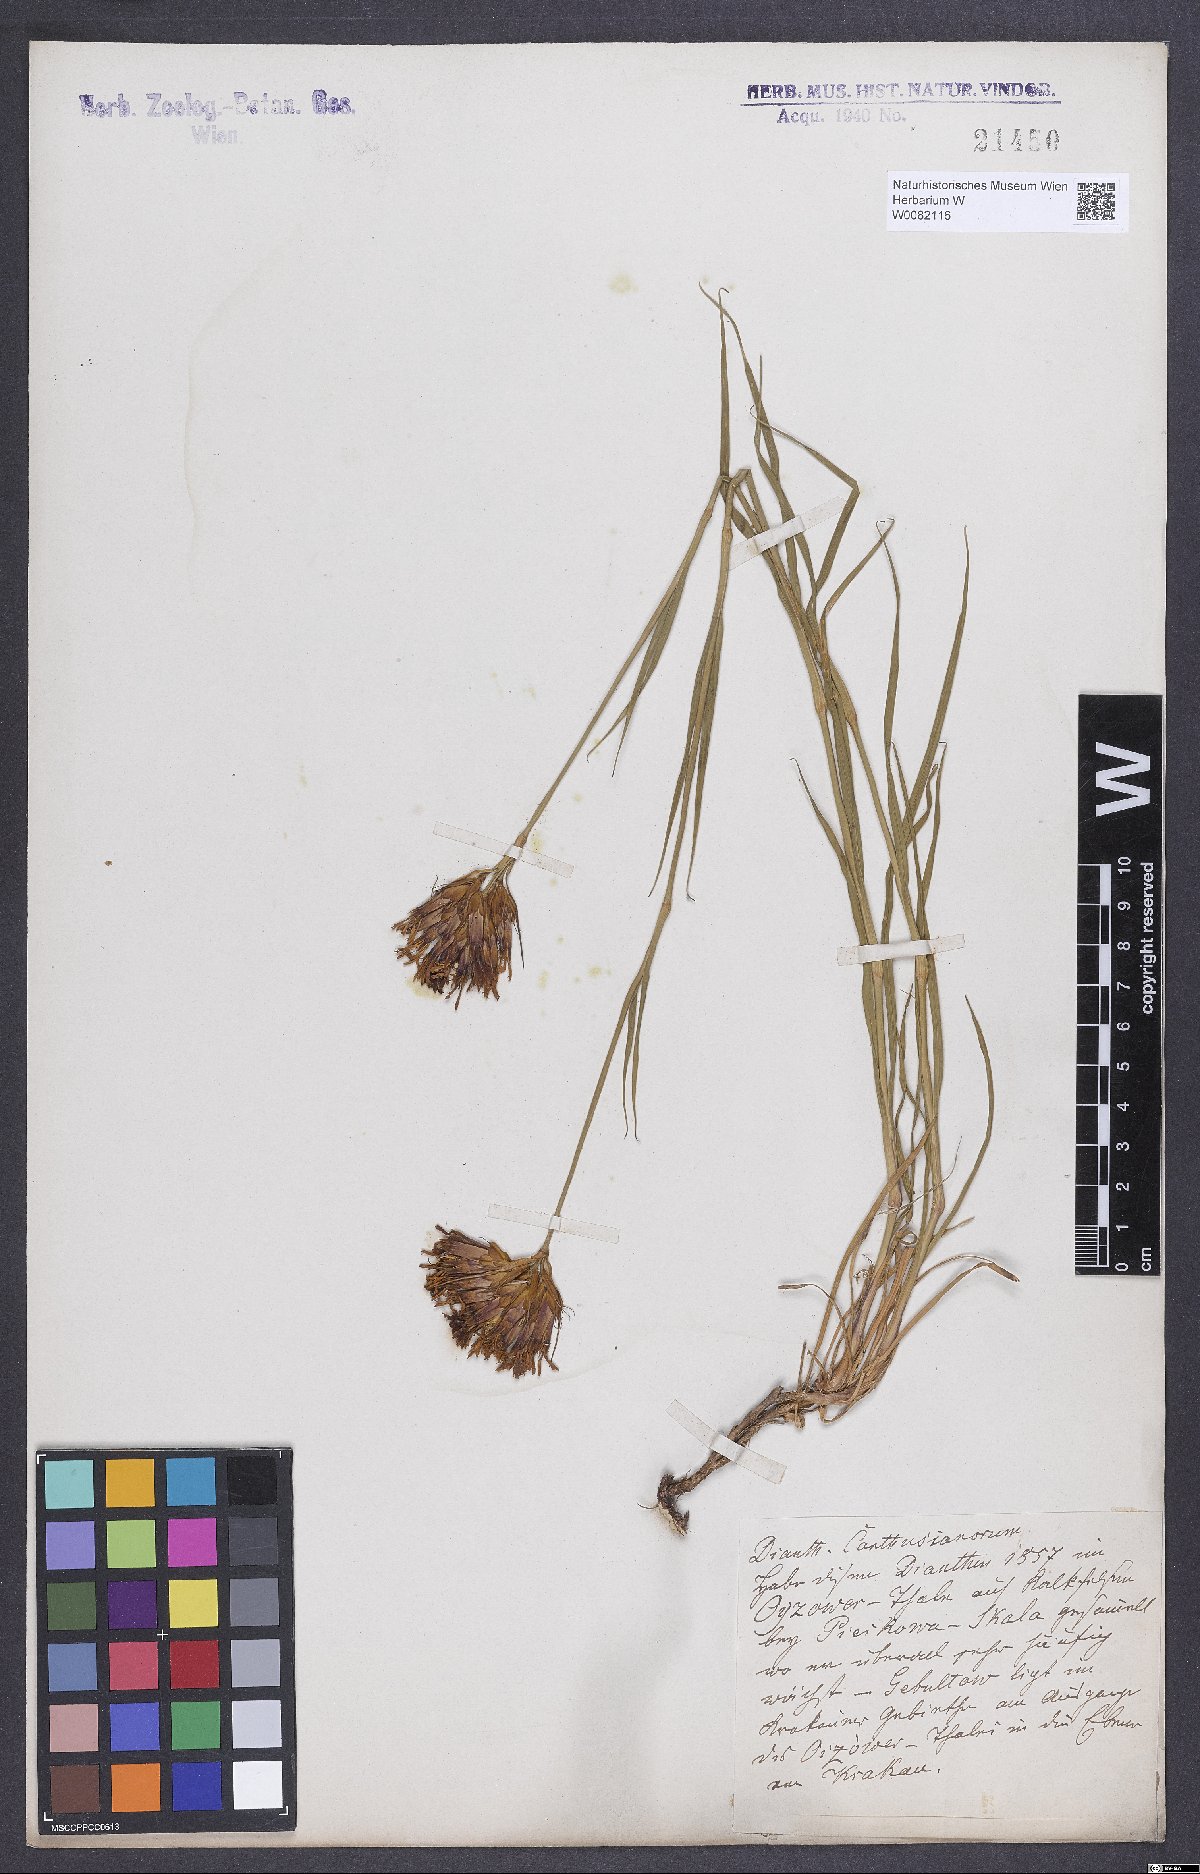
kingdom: Plantae
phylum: Tracheophyta
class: Magnoliopsida
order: Caryophyllales
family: Caryophyllaceae
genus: Dianthus
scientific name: Dianthus carthusianorum
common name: Carthusian pink
